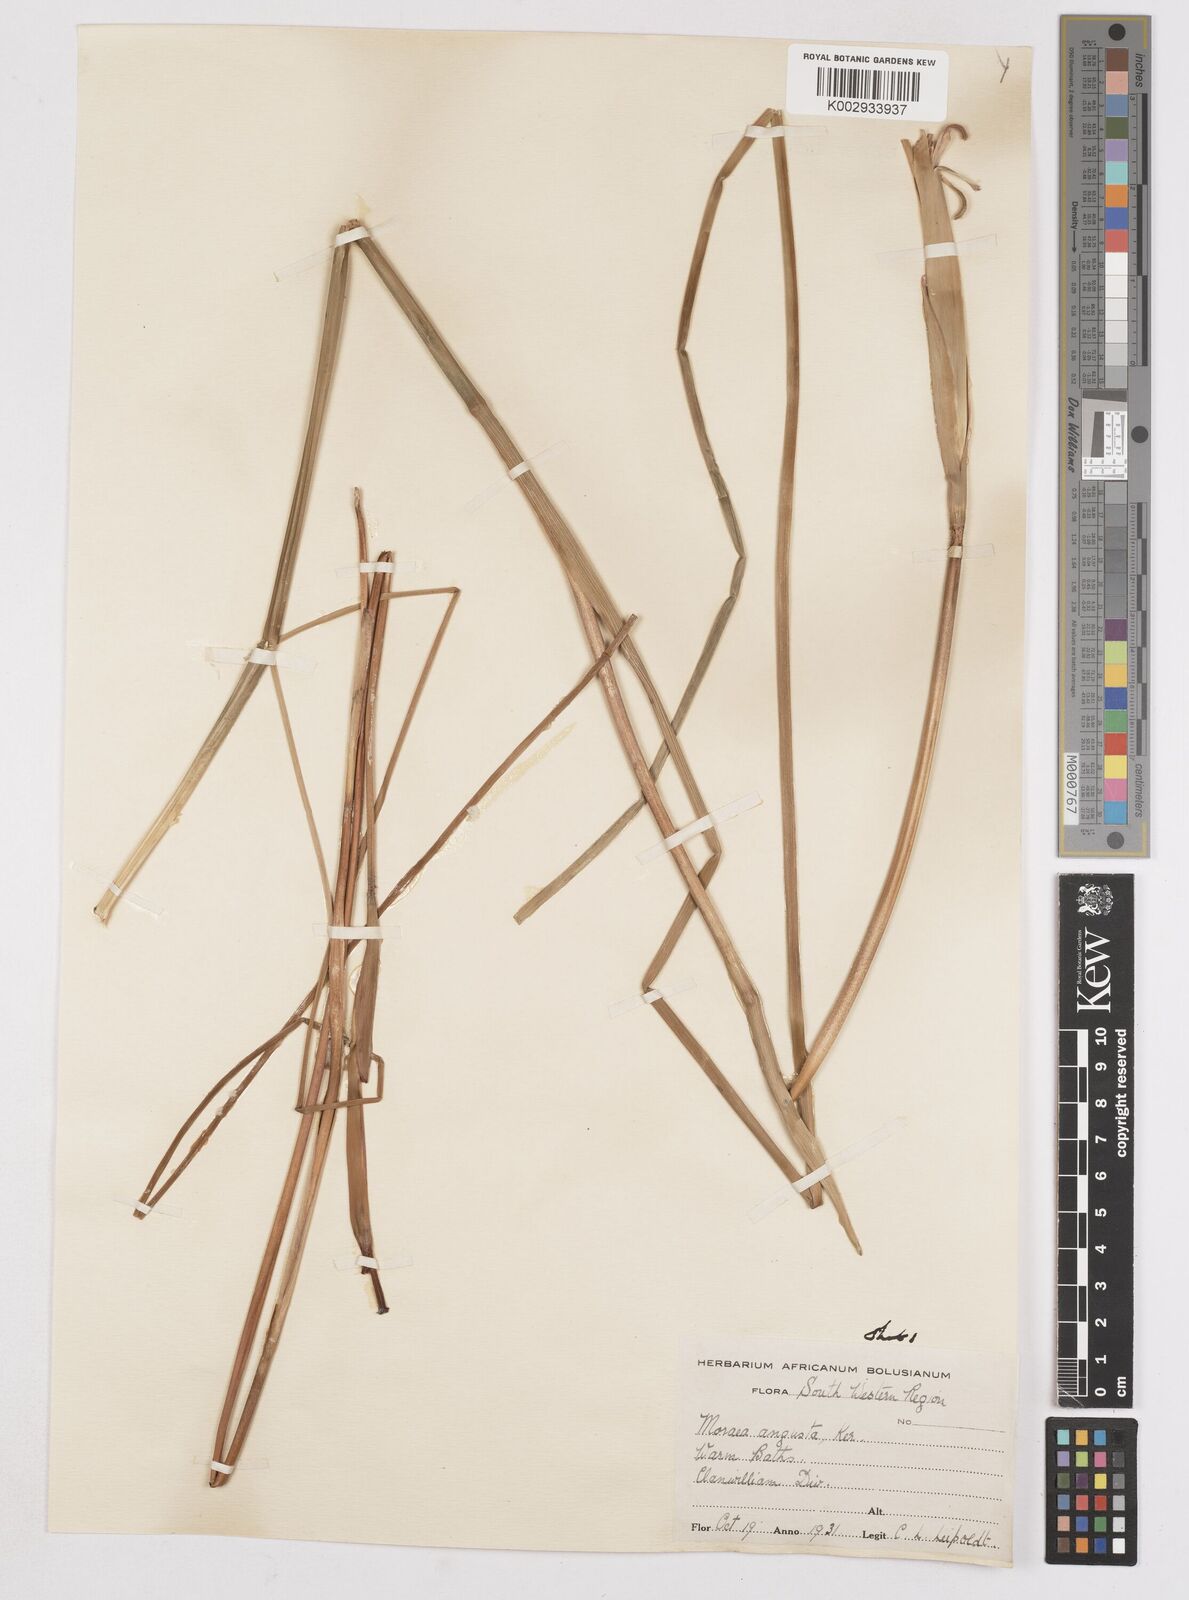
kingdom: Plantae
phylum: Tracheophyta
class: Liliopsida
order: Asparagales
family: Iridaceae
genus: Moraea
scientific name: Moraea angusta
